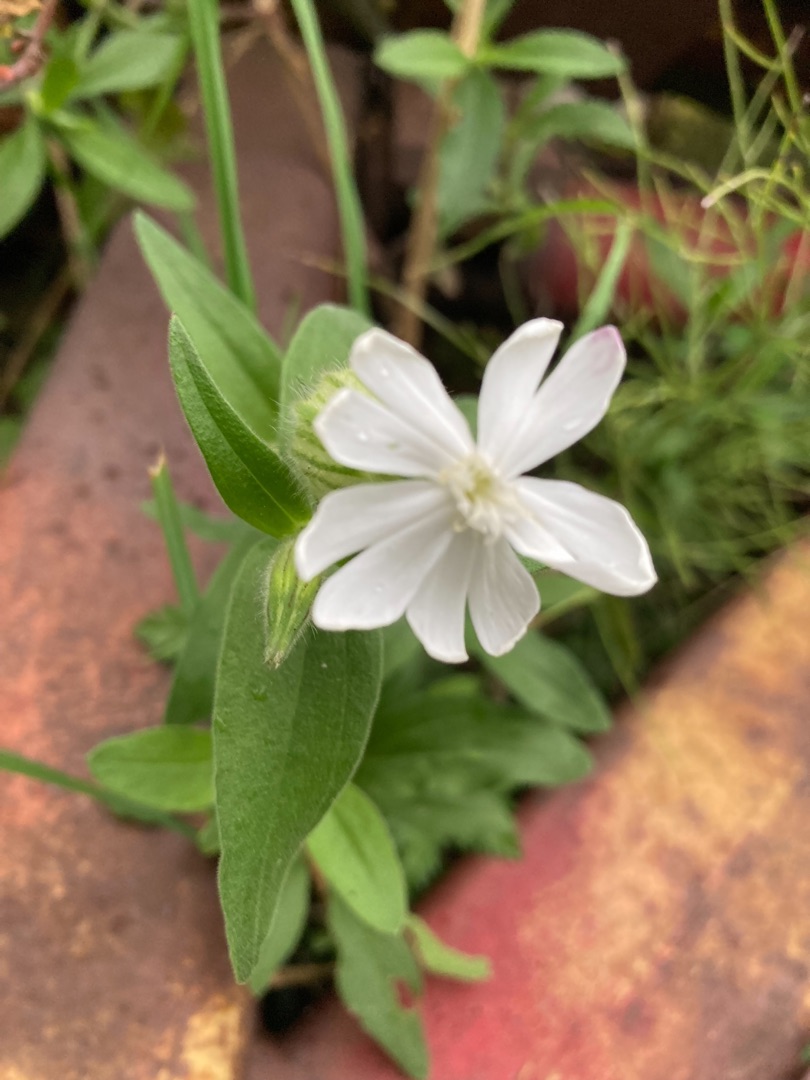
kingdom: Plantae
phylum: Tracheophyta
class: Magnoliopsida
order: Caryophyllales
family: Caryophyllaceae
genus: Silene
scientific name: Silene latifolia
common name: Aftenpragtstjerne
